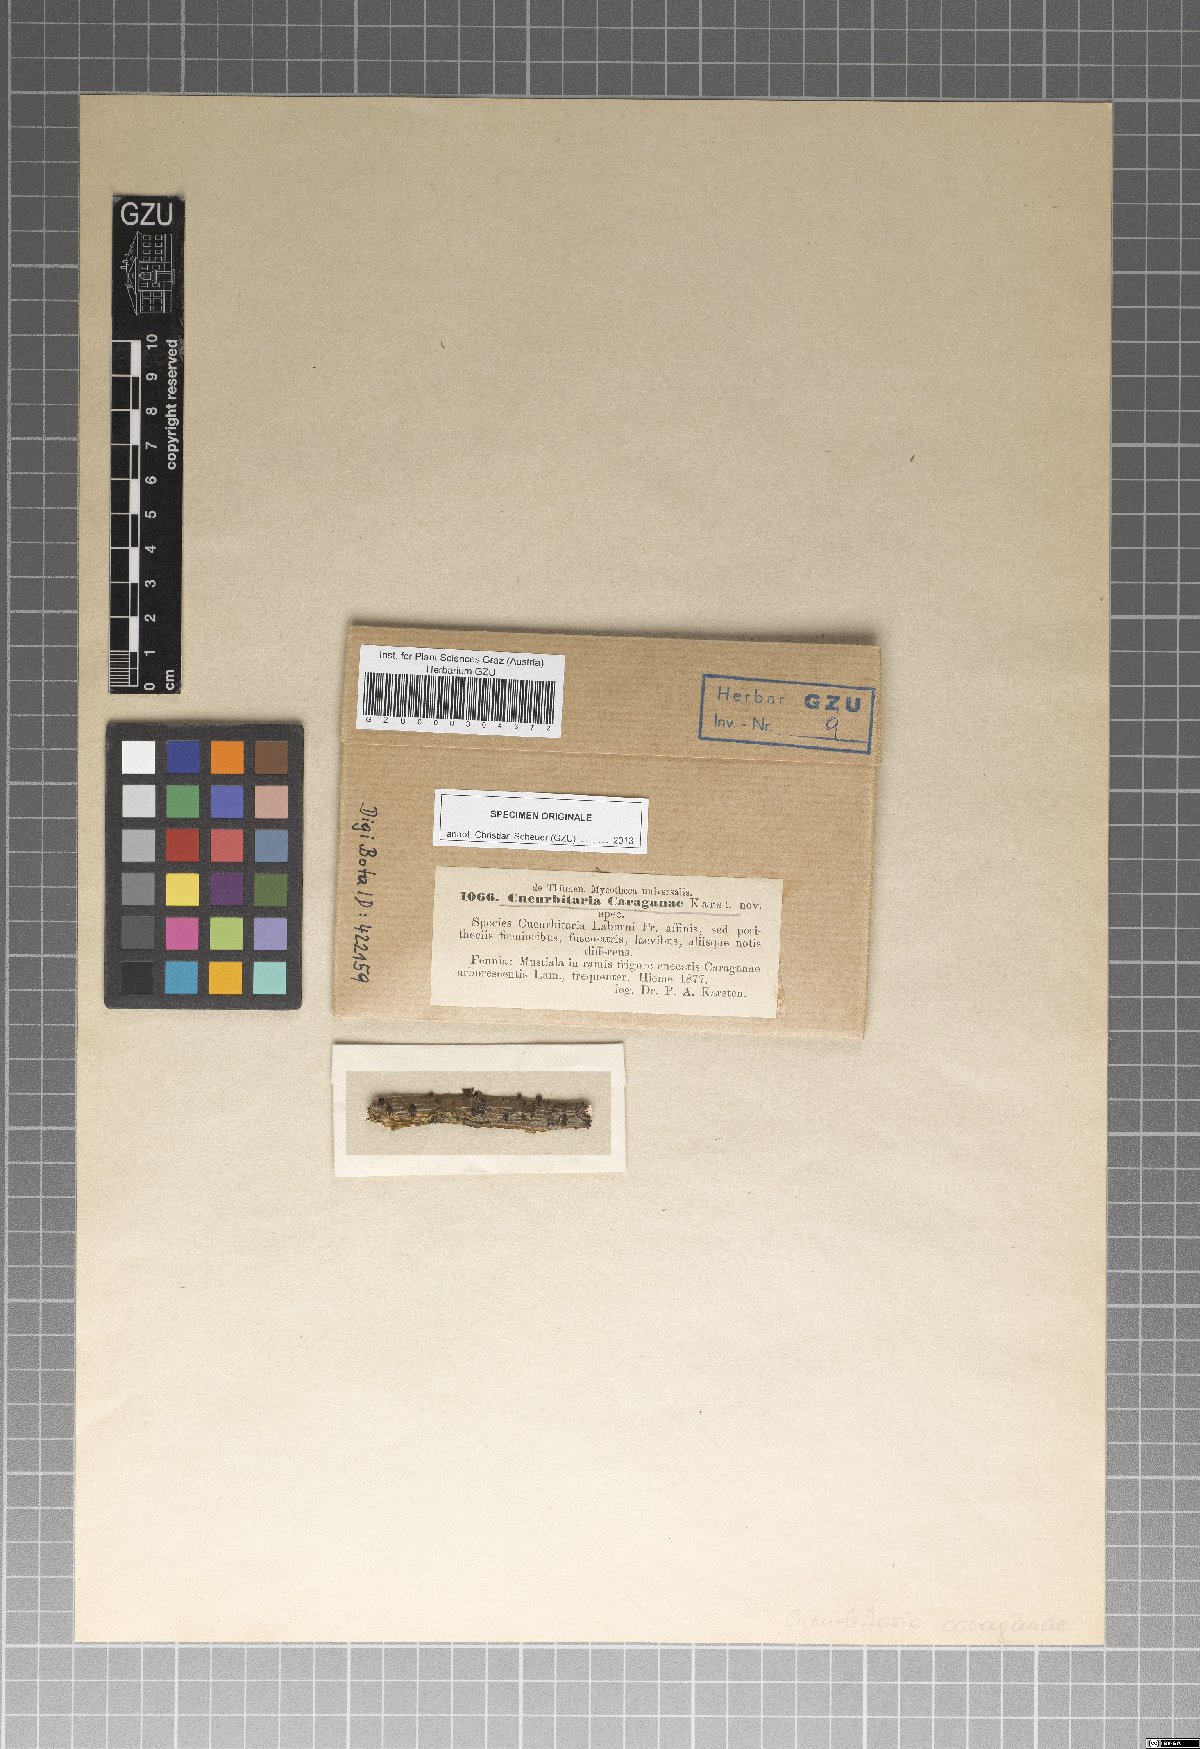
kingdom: Fungi
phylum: Ascomycota
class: Dothideomycetes
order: Pleosporales
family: Cucurbitariaceae
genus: Cucurbitaria
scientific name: Cucurbitaria caraganae
